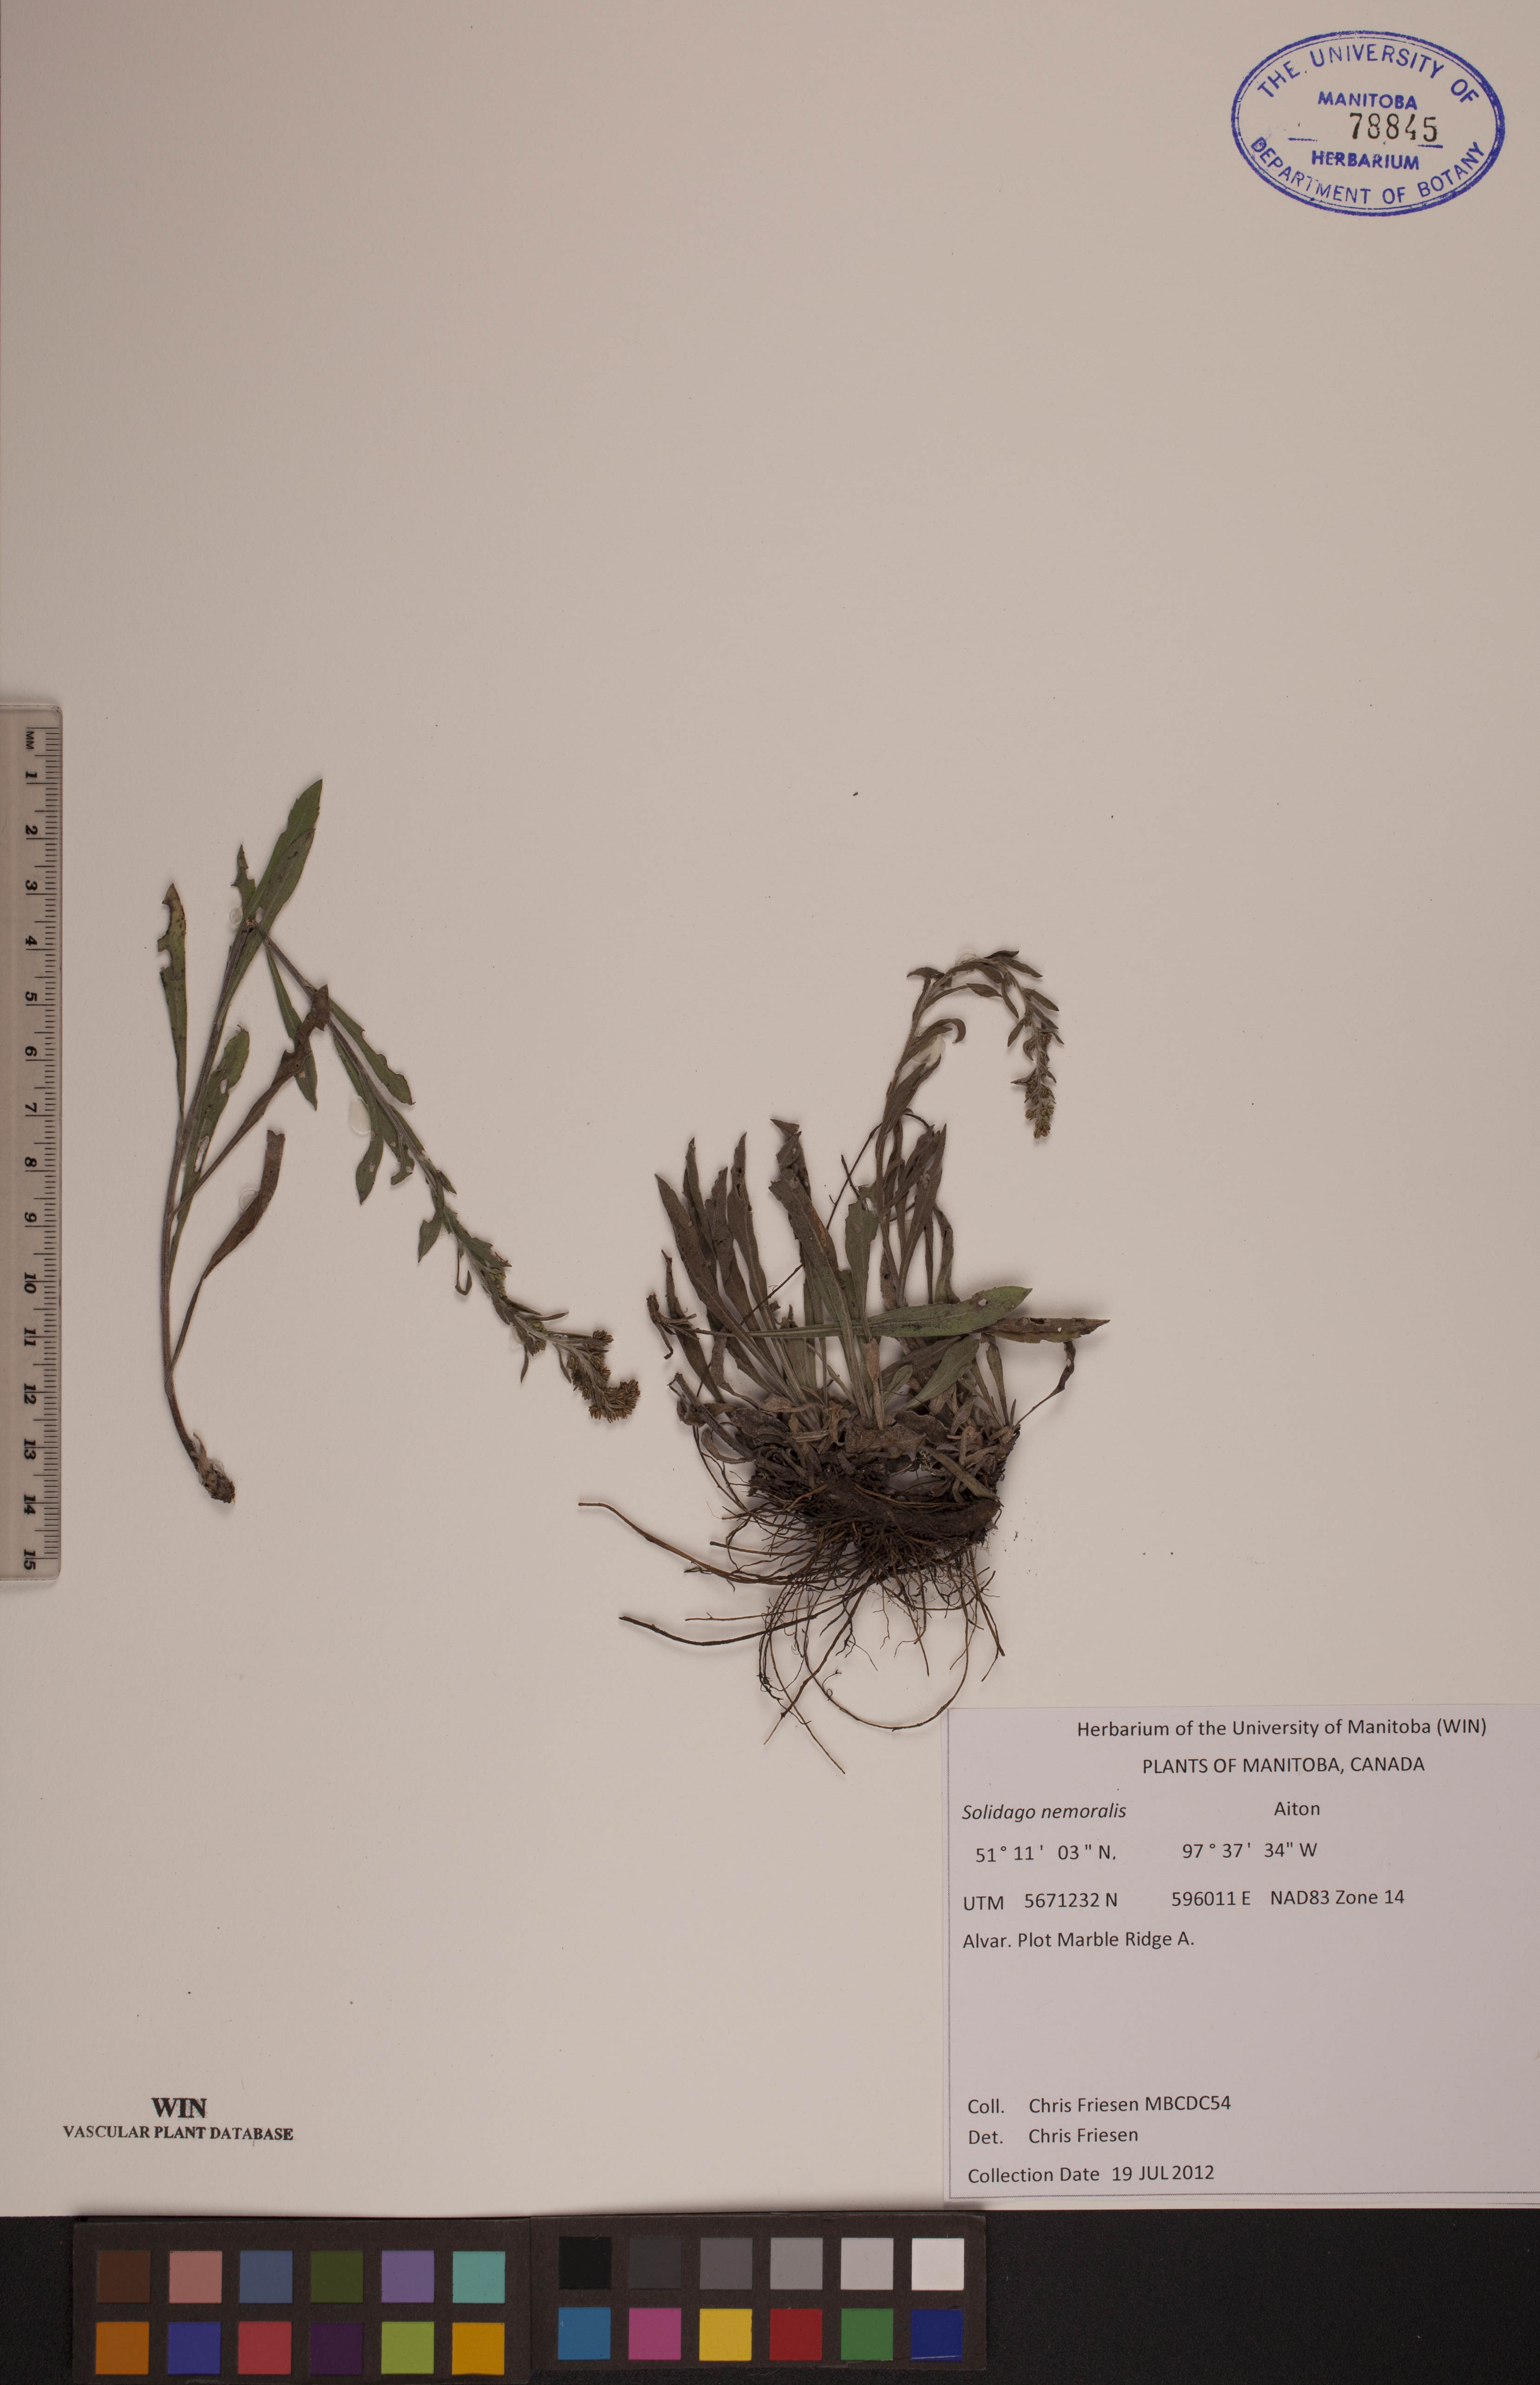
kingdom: Plantae
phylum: Tracheophyta
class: Magnoliopsida
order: Asterales
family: Asteraceae
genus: Solidago
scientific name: Solidago nemoralis
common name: Grey goldenrod
